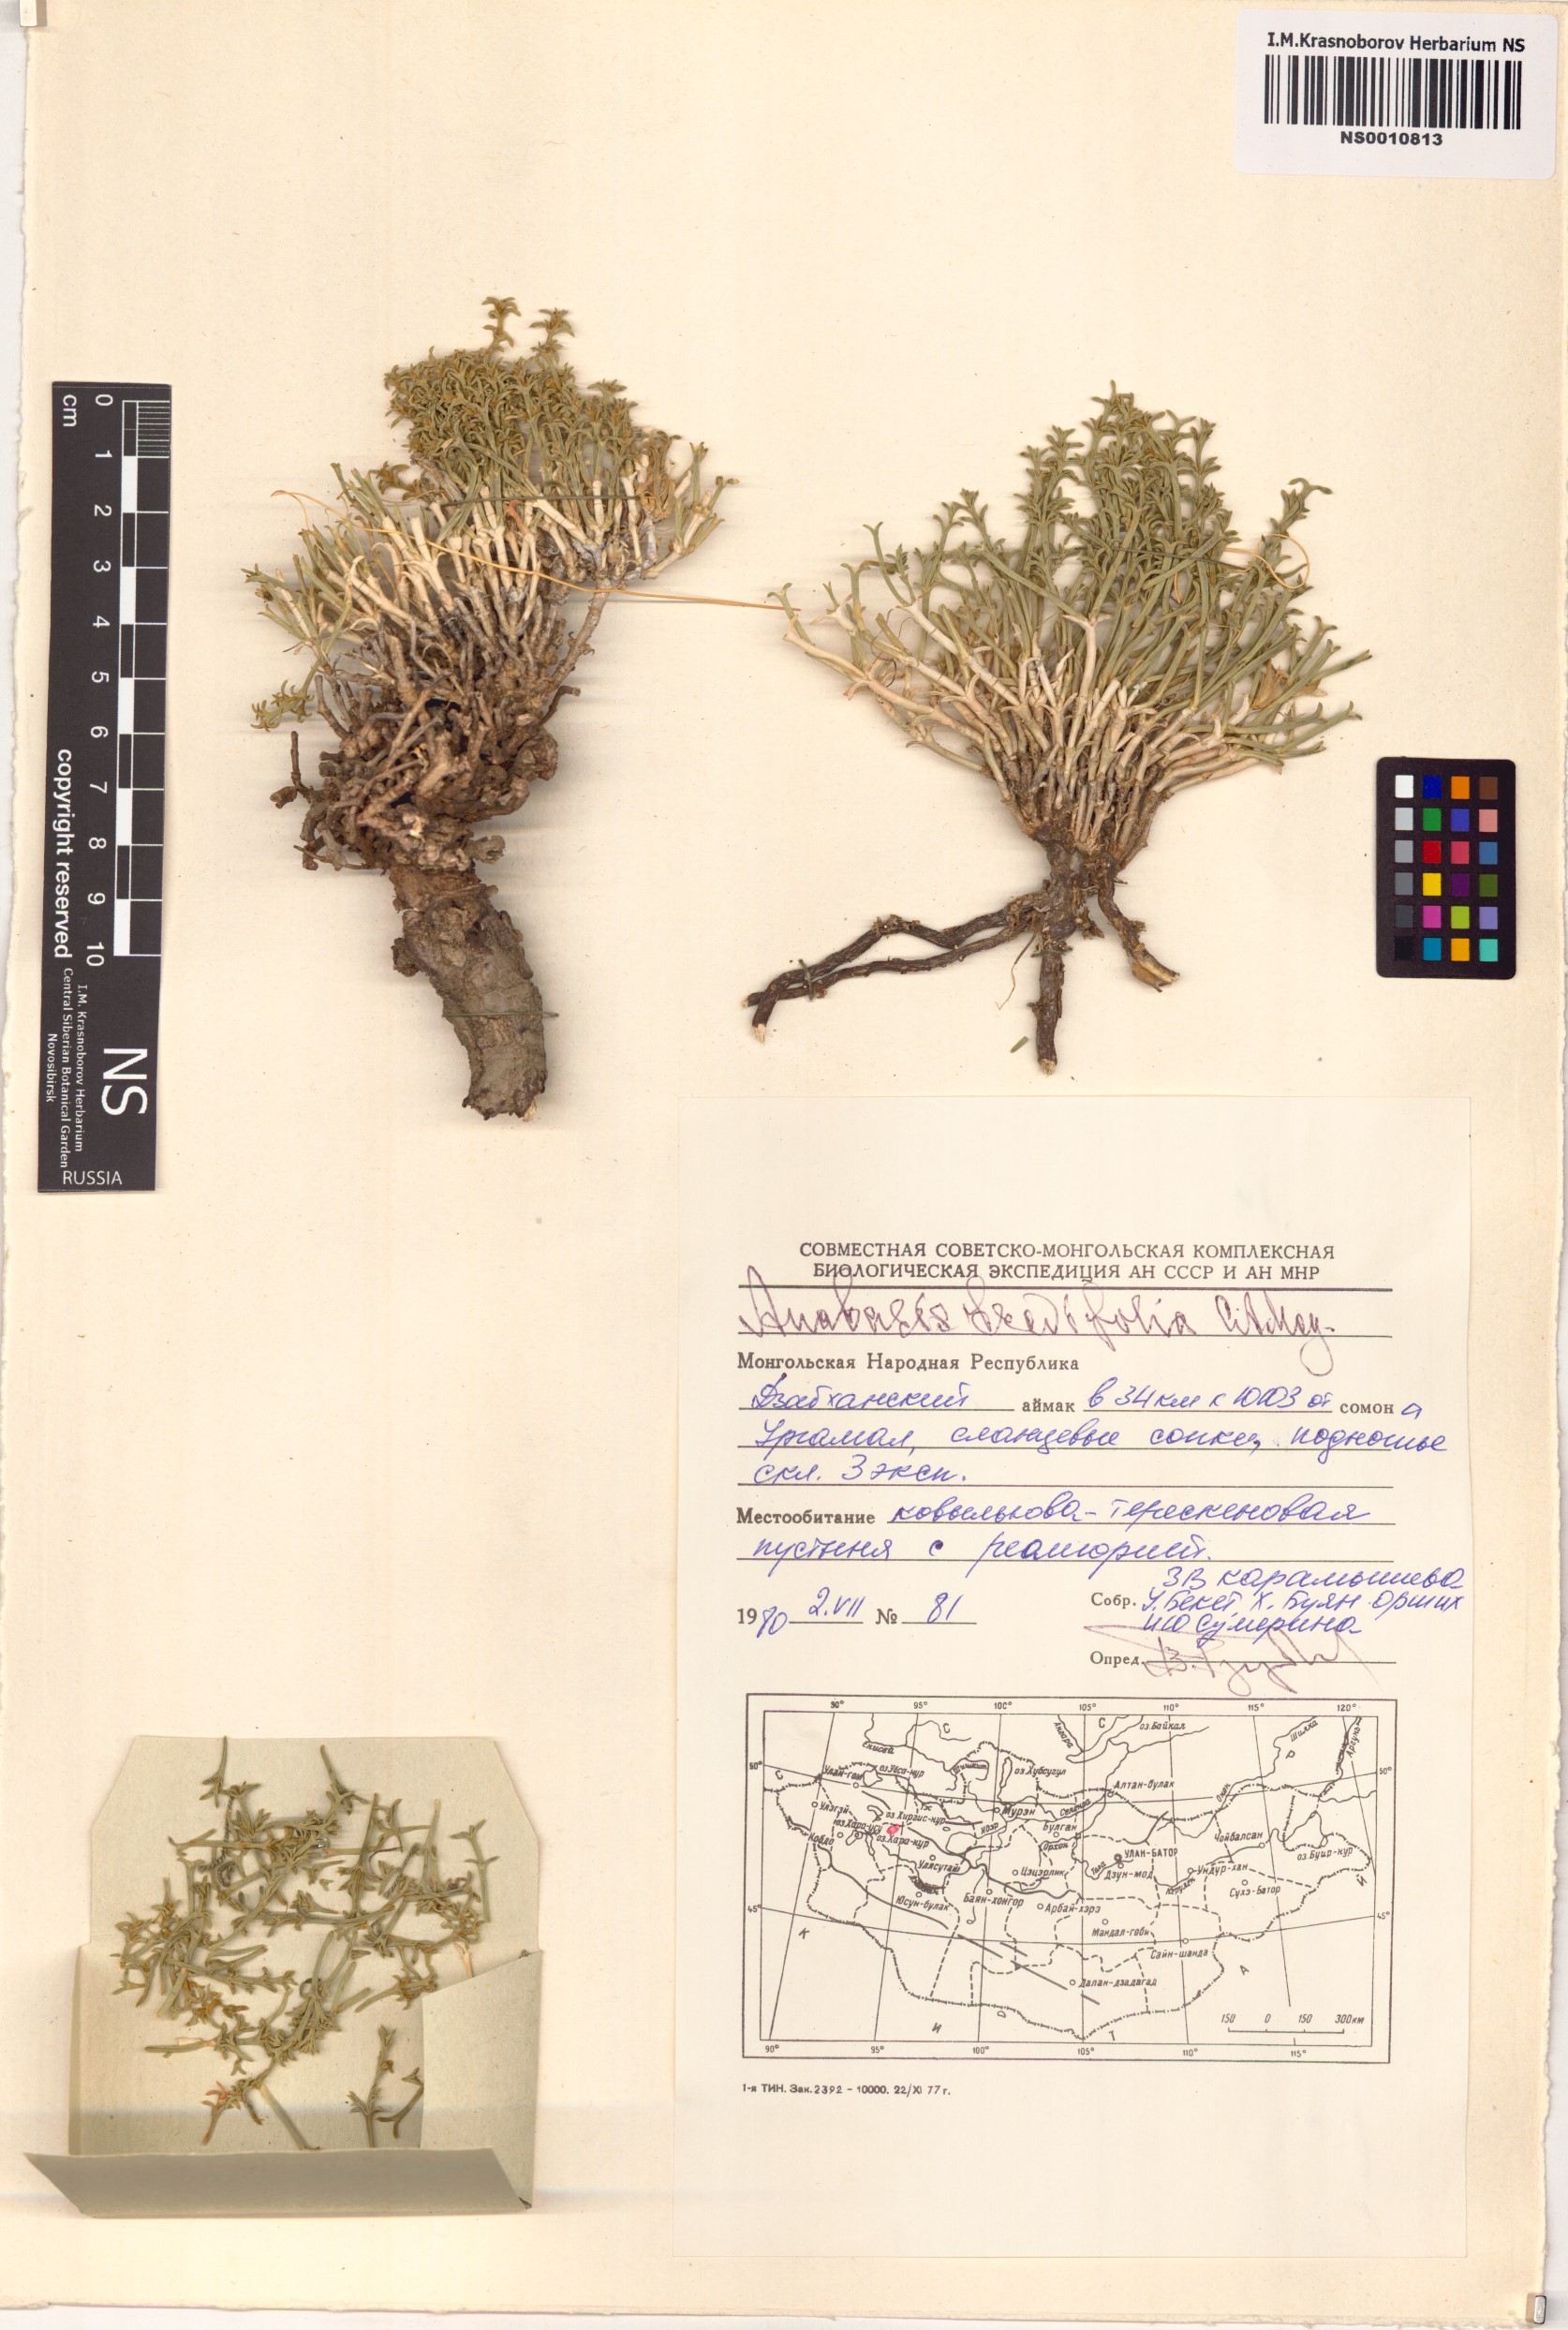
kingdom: Plantae
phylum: Tracheophyta
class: Magnoliopsida
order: Caryophyllales
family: Amaranthaceae
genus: Anabasis
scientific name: Anabasis brevifolia
